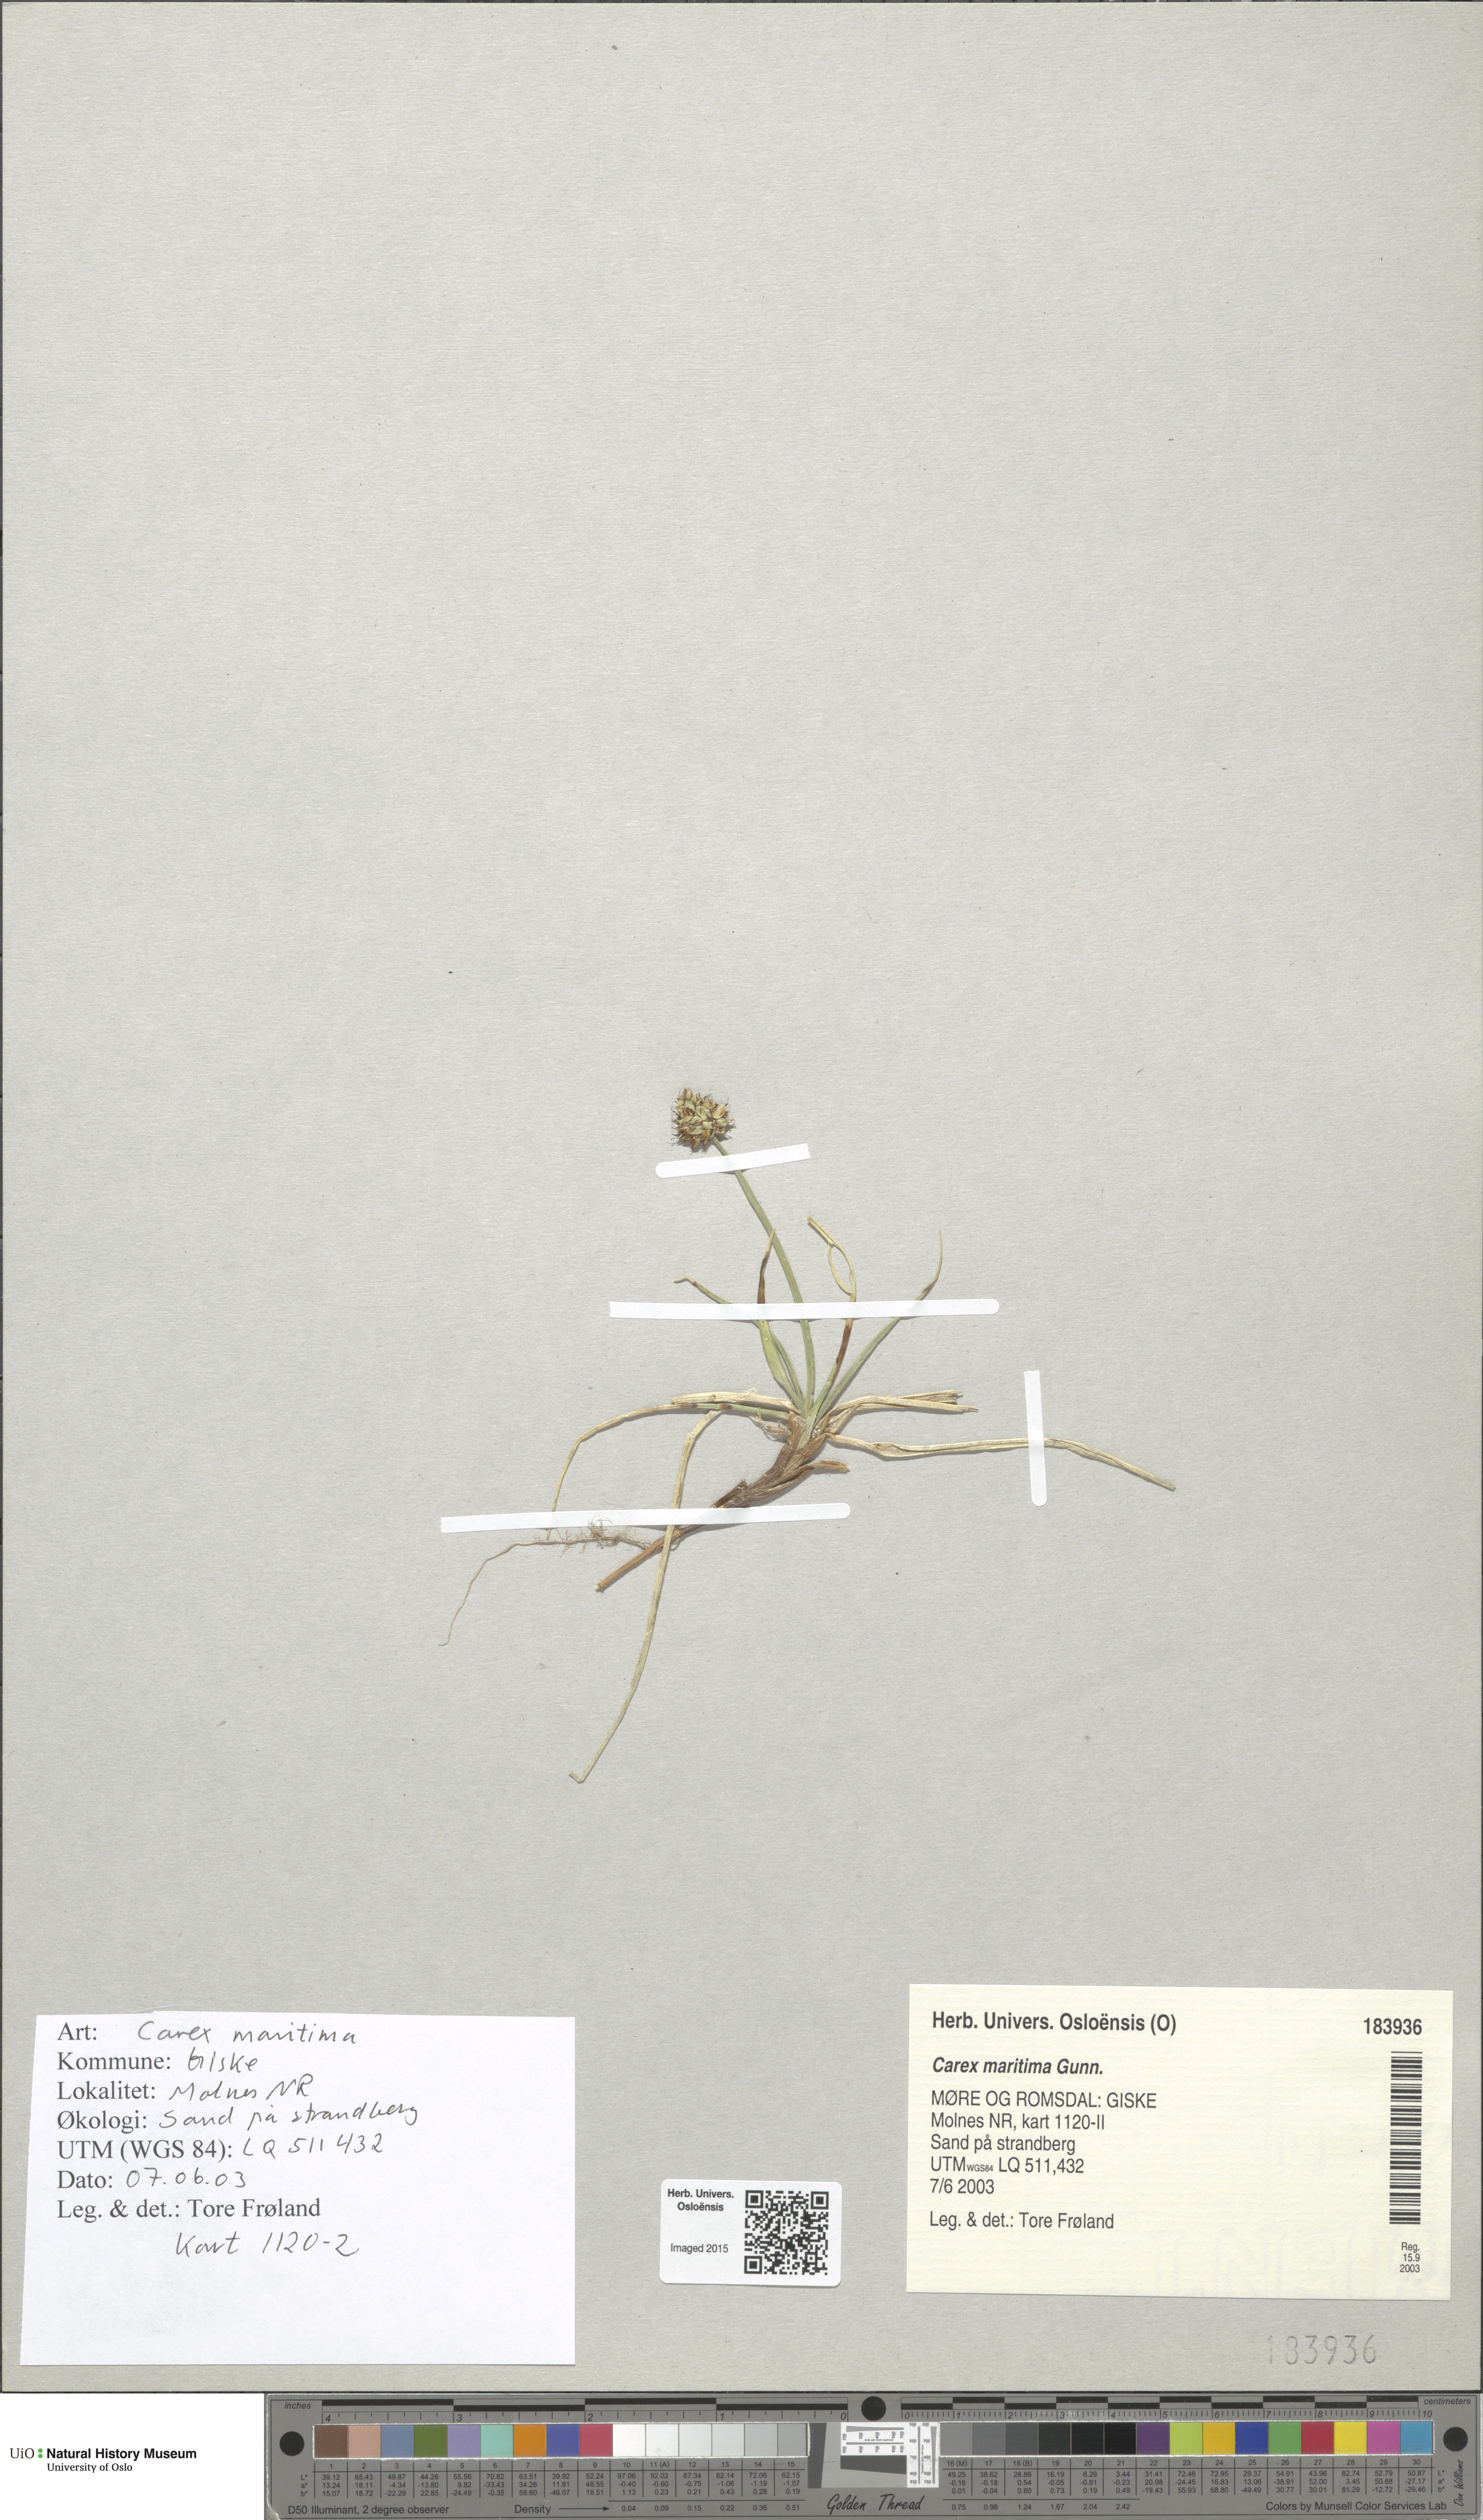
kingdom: Plantae
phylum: Tracheophyta
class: Liliopsida
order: Poales
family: Cyperaceae
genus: Carex
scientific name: Carex maritima
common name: Curved sedge
